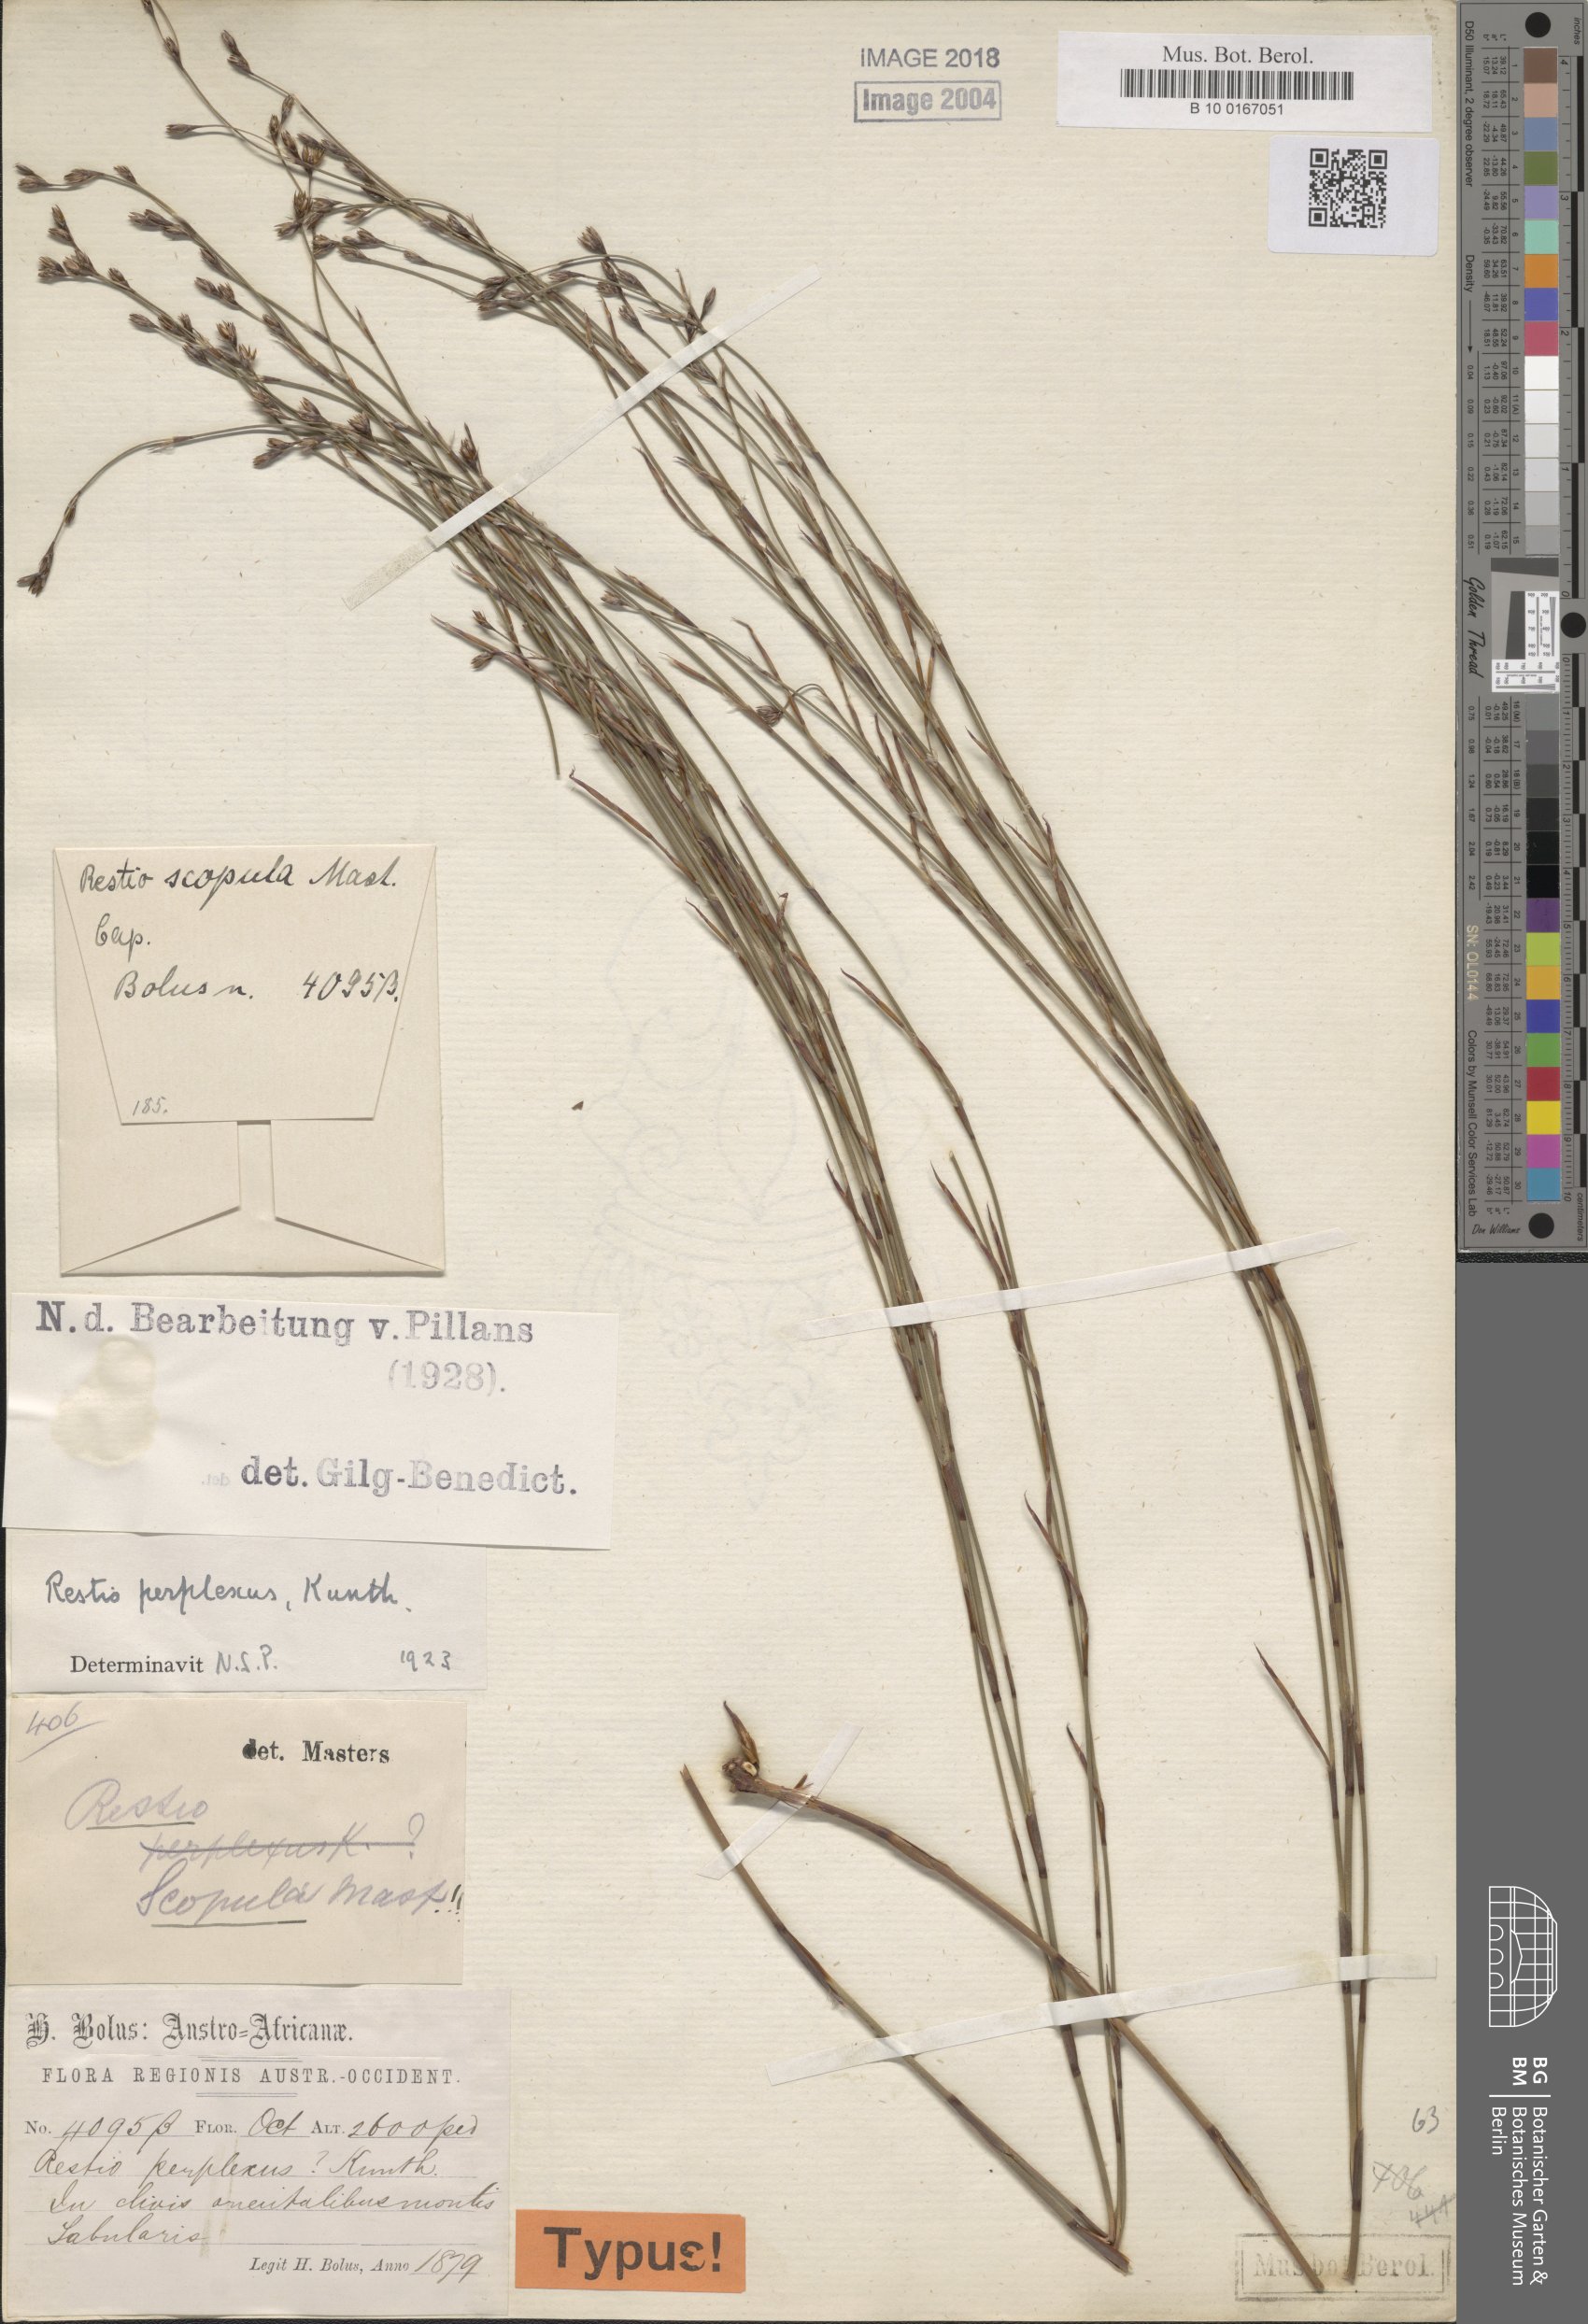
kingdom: Plantae
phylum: Tracheophyta
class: Liliopsida
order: Poales
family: Restionaceae
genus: Restio
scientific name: Restio perplexus
